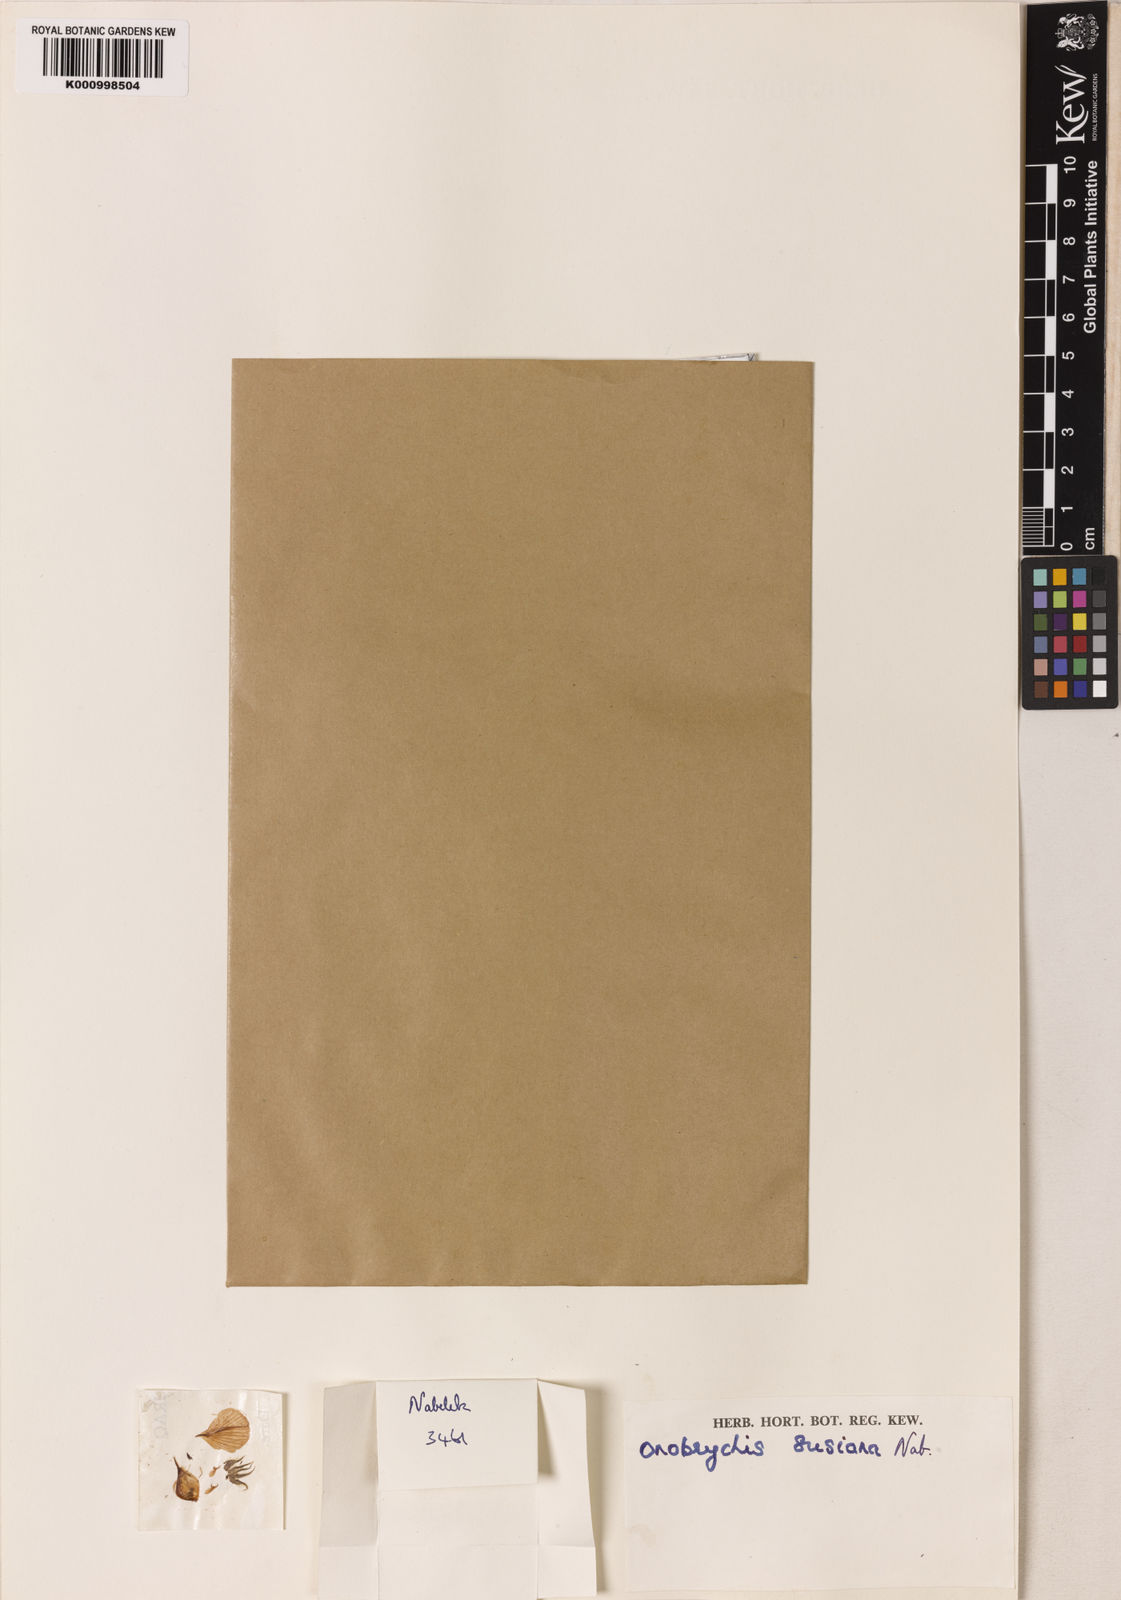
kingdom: Plantae
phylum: Tracheophyta
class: Magnoliopsida
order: Fabales
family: Fabaceae
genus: Onobrychis
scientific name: Onobrychis
